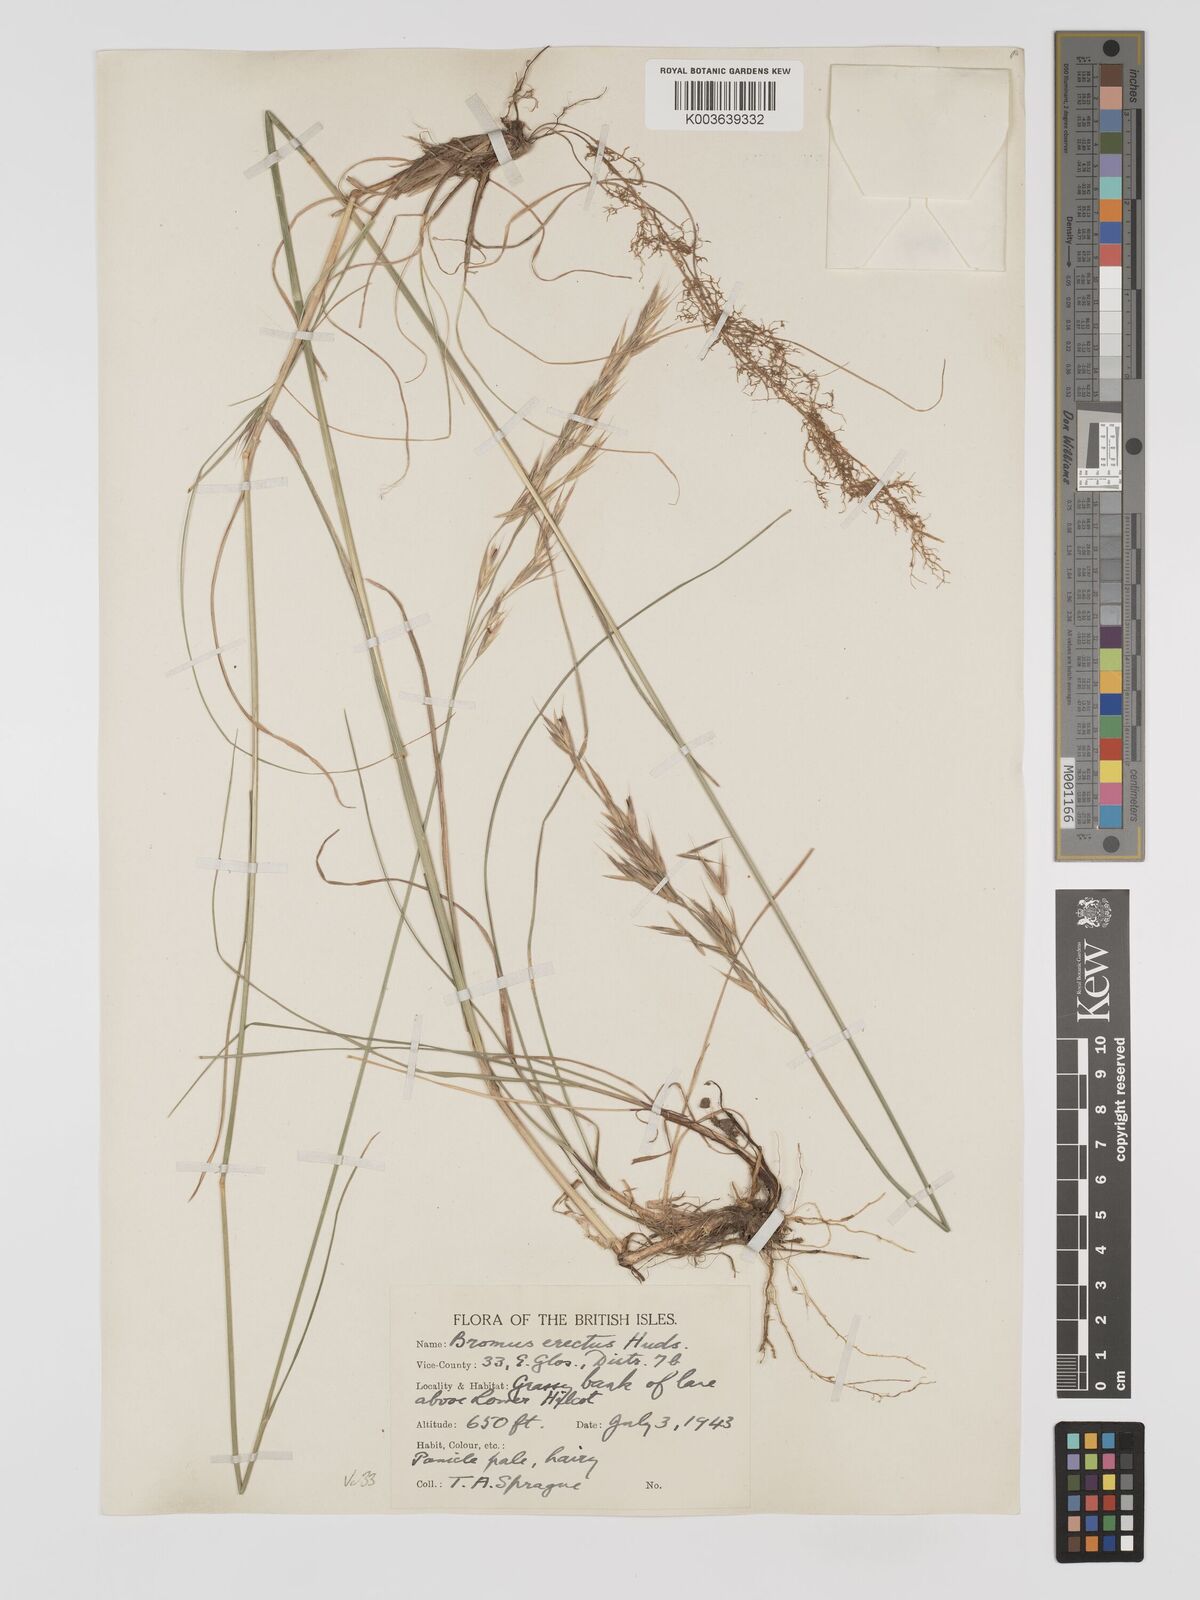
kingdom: Plantae
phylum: Tracheophyta
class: Liliopsida
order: Poales
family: Poaceae
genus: Bromus
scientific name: Bromus erectus
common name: Erect brome
